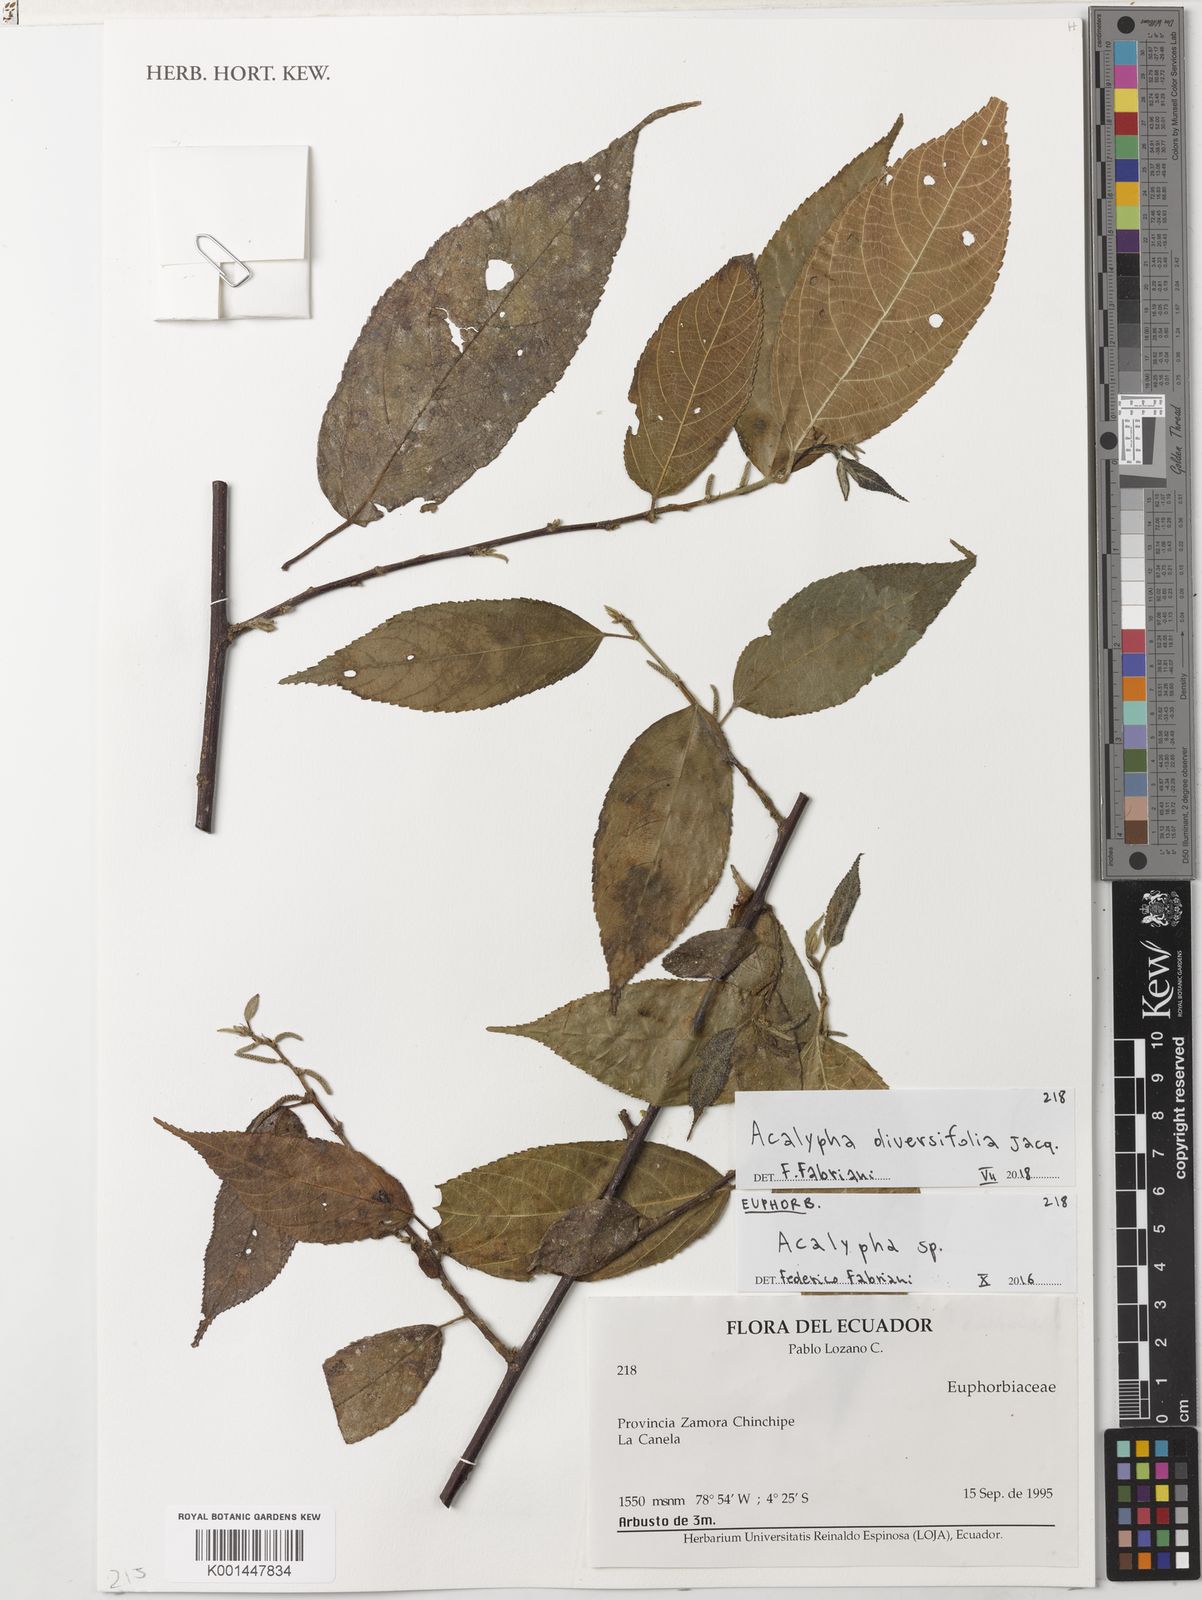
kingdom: Plantae
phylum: Tracheophyta
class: Magnoliopsida
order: Malpighiales
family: Euphorbiaceae
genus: Acalypha
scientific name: Acalypha diversifolia
